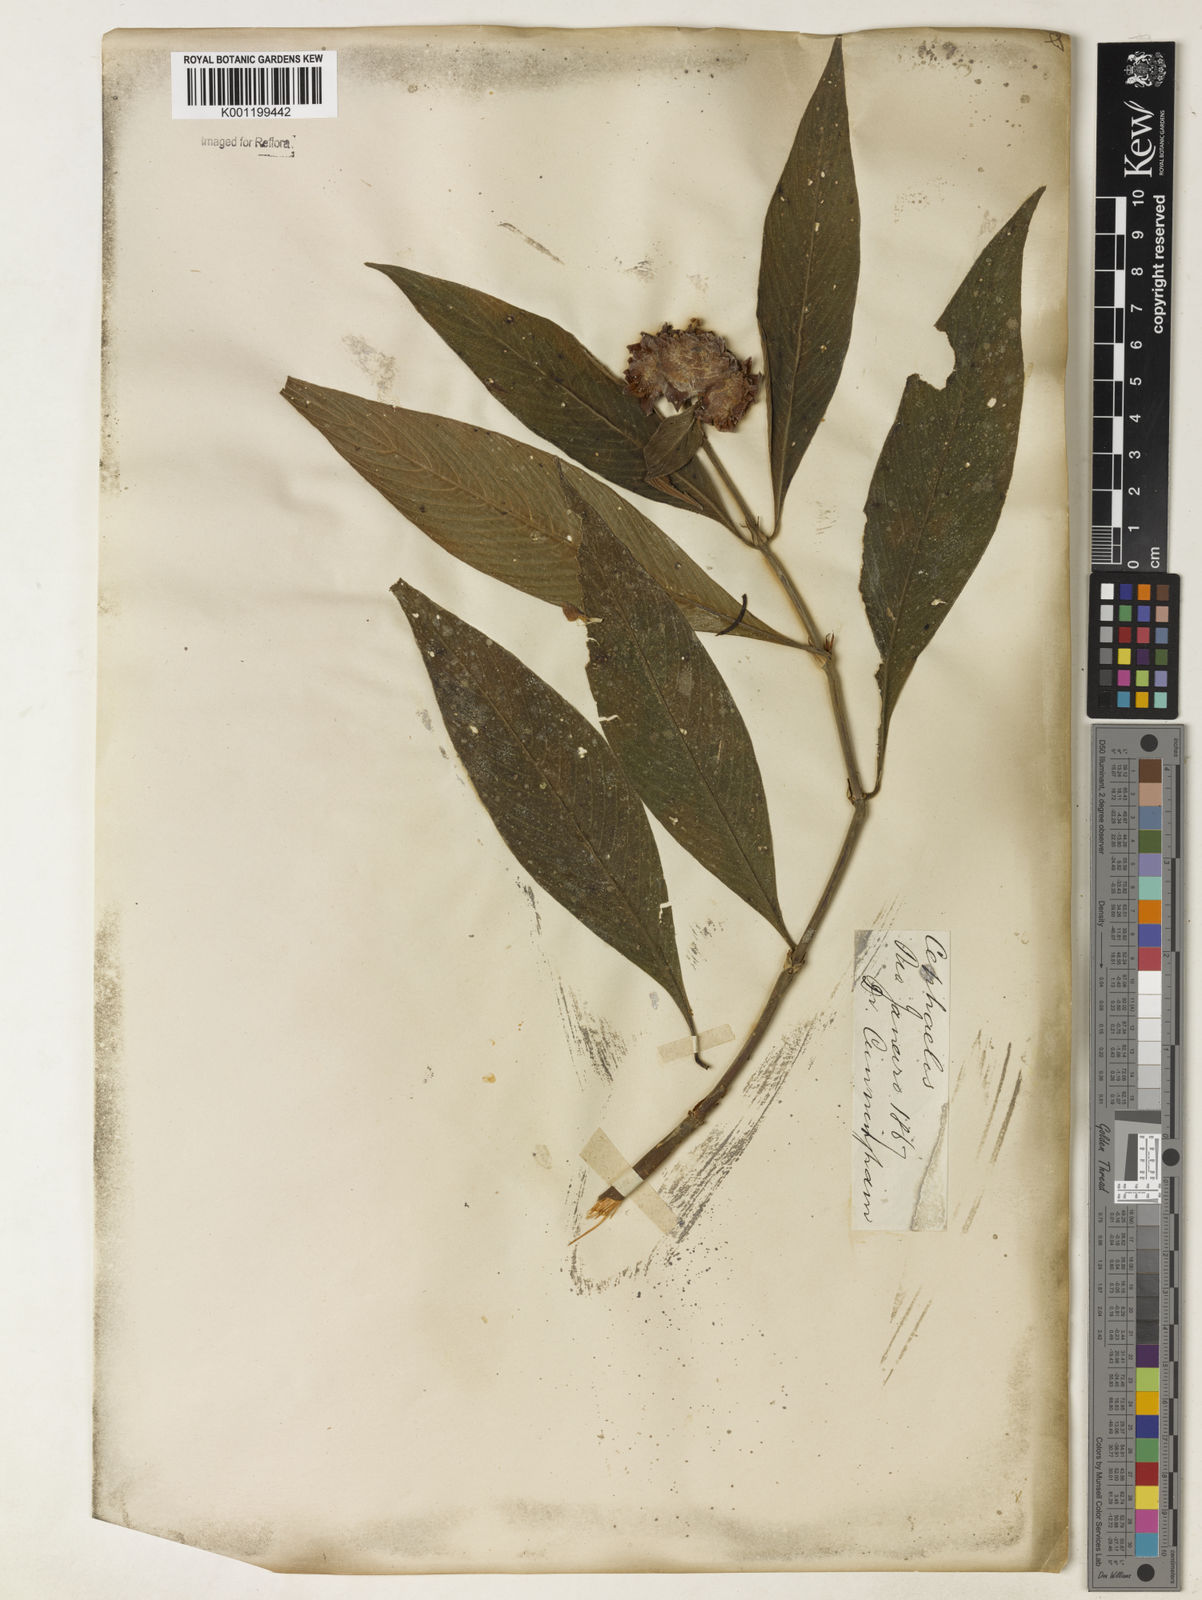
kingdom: Plantae
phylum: Tracheophyta
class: Magnoliopsida
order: Gentianales
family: Rubiaceae
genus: Psychotria
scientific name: Psychotria
